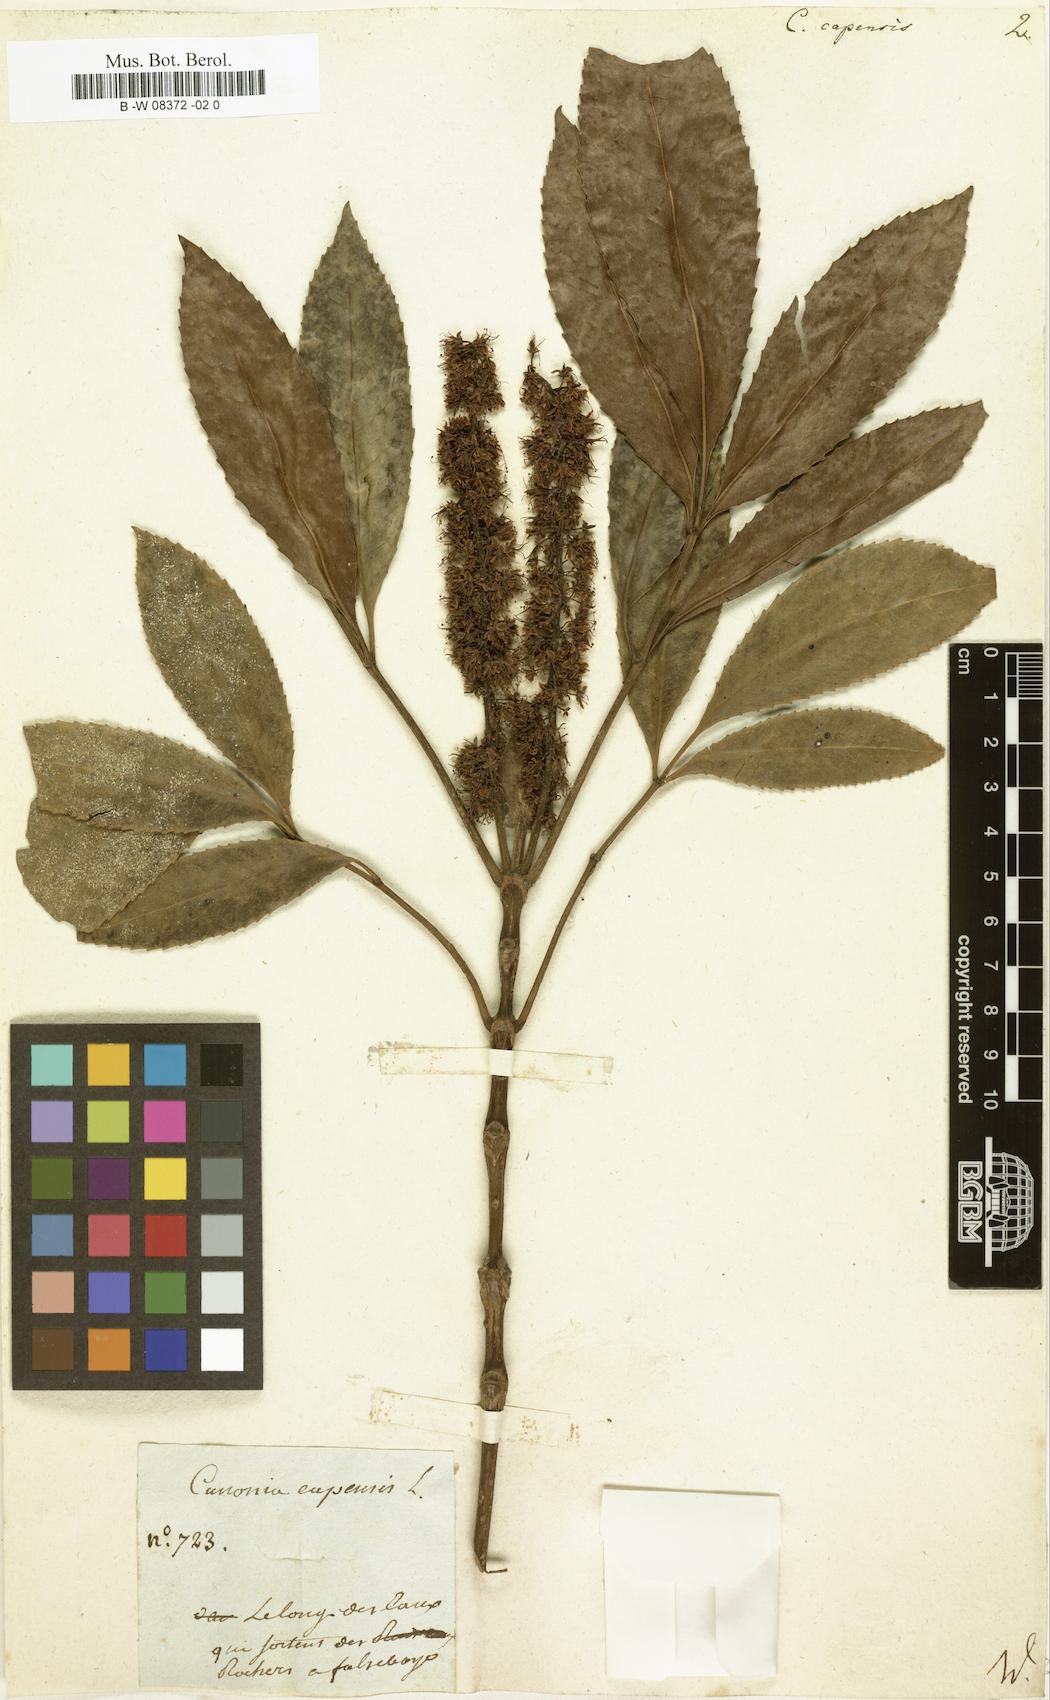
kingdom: Plantae
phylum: Tracheophyta
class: Magnoliopsida
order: Oxalidales
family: Cunoniaceae
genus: Cunonia
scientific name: Cunonia capensis
